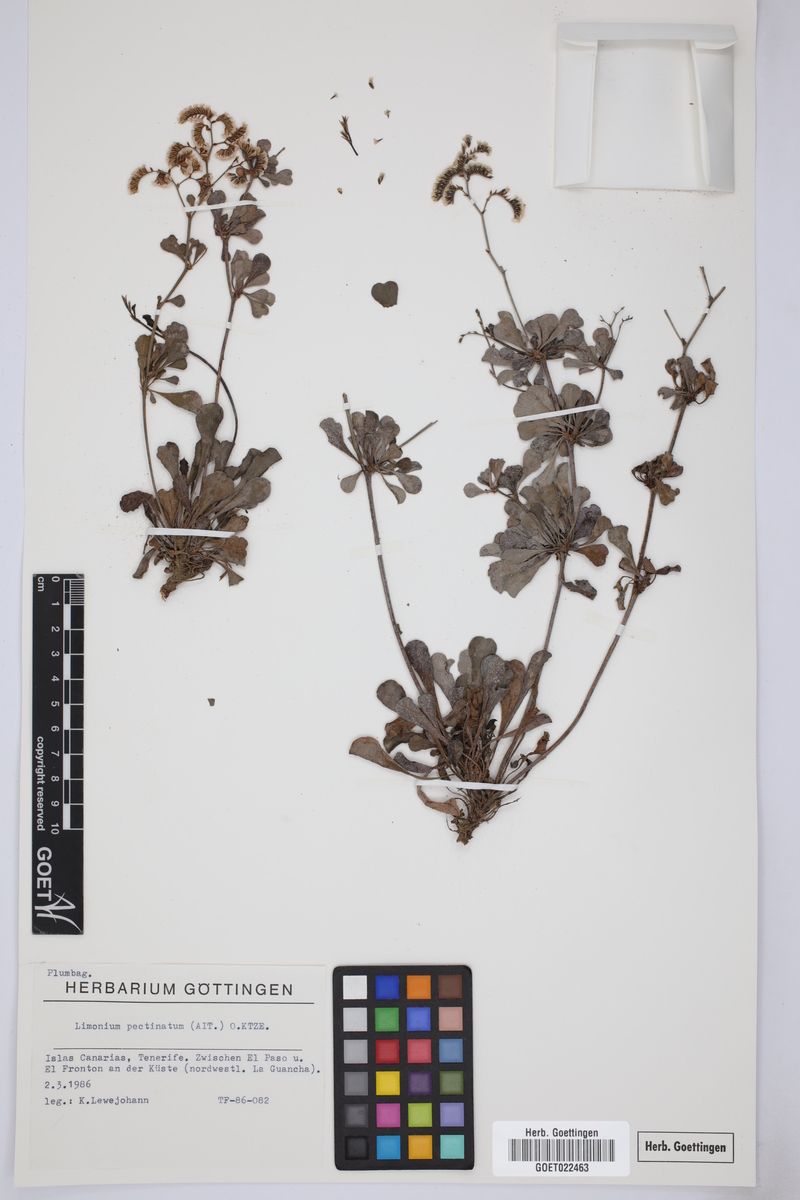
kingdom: Plantae
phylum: Tracheophyta
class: Magnoliopsida
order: Caryophyllales
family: Plumbaginaceae
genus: Limonium
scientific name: Limonium pectinatum
